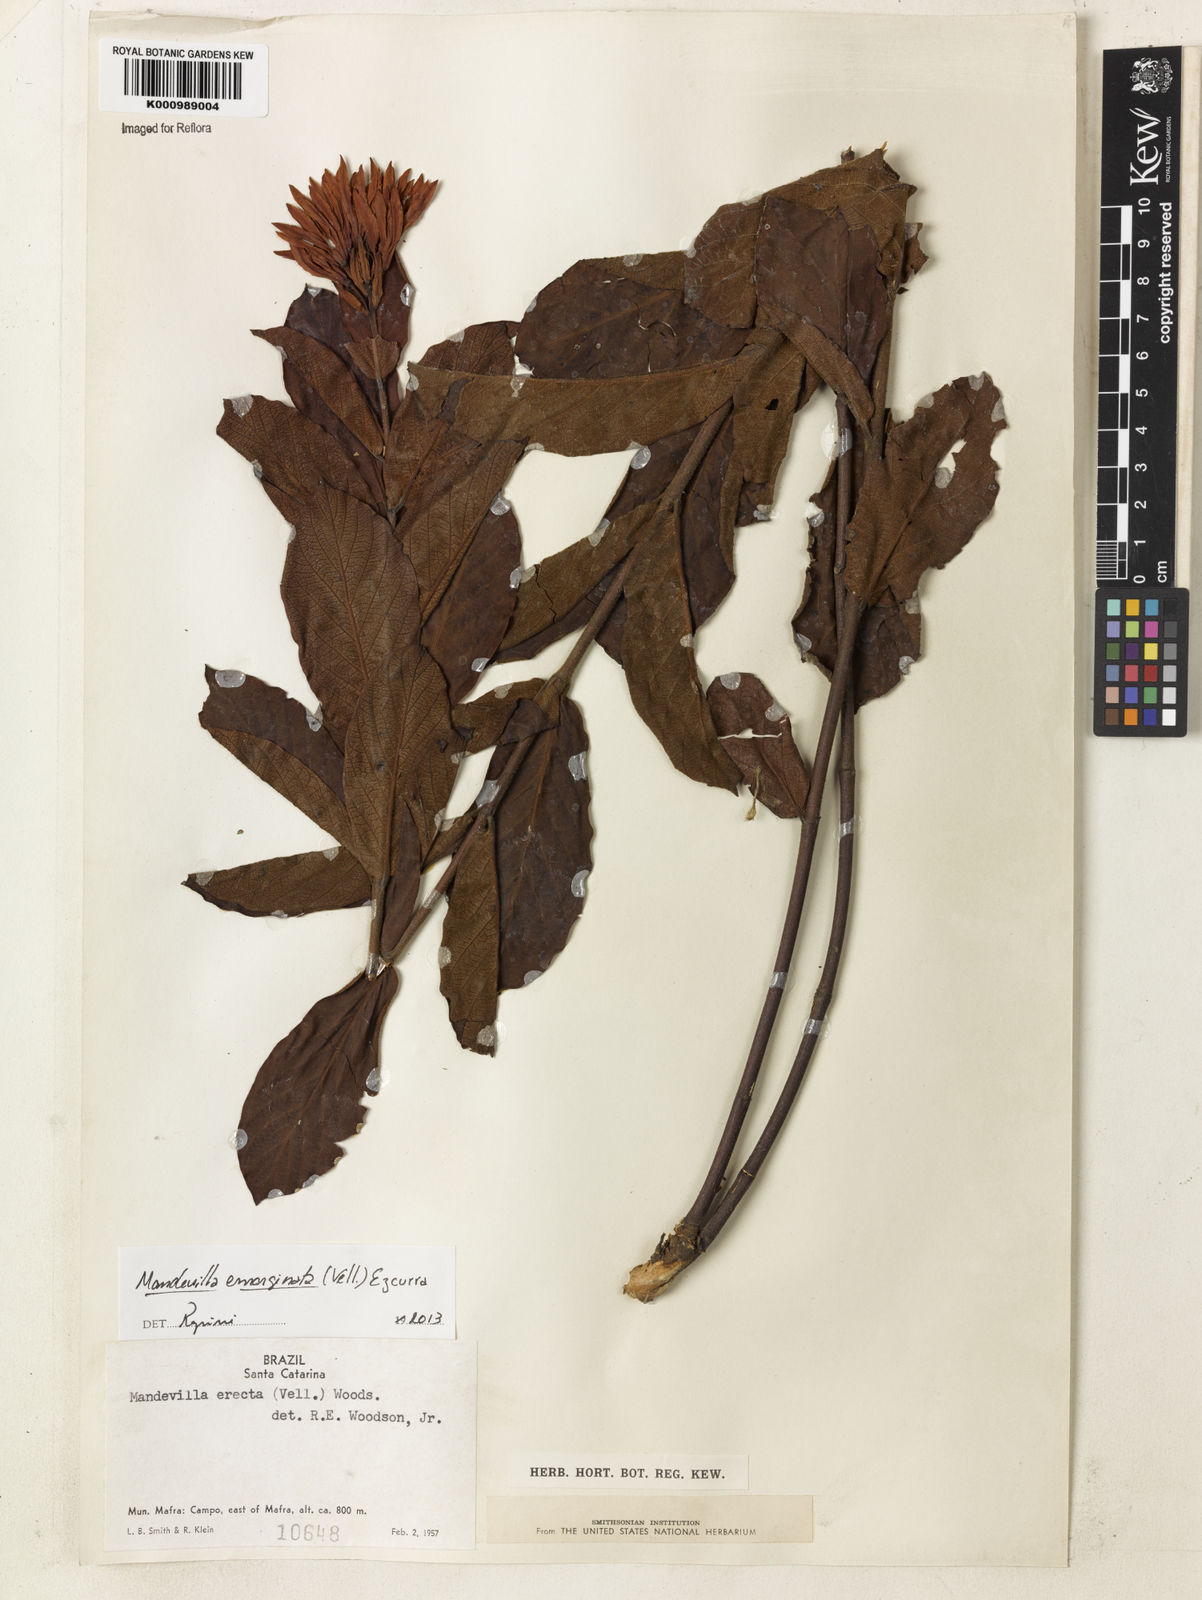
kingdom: Plantae
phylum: Tracheophyta
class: Magnoliopsida
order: Gentianales
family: Apocynaceae
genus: Mandevilla
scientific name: Mandevilla emarginata
